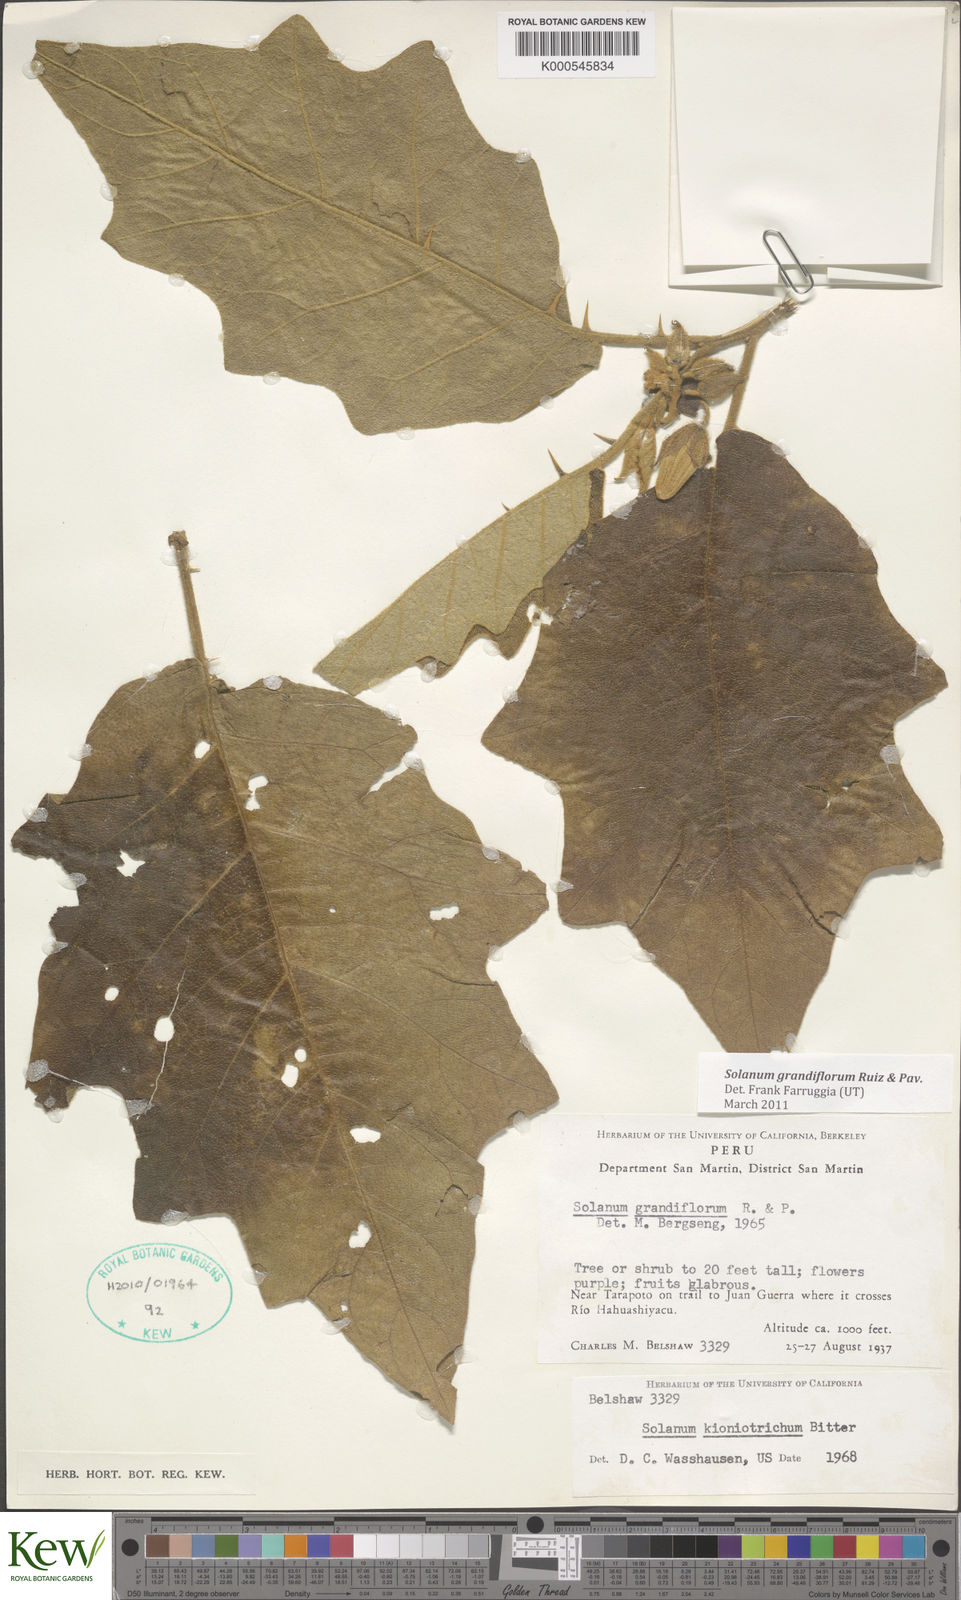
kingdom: Plantae
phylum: Tracheophyta
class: Magnoliopsida
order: Solanales
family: Solanaceae
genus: Solanum
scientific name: Solanum grandiflorum
